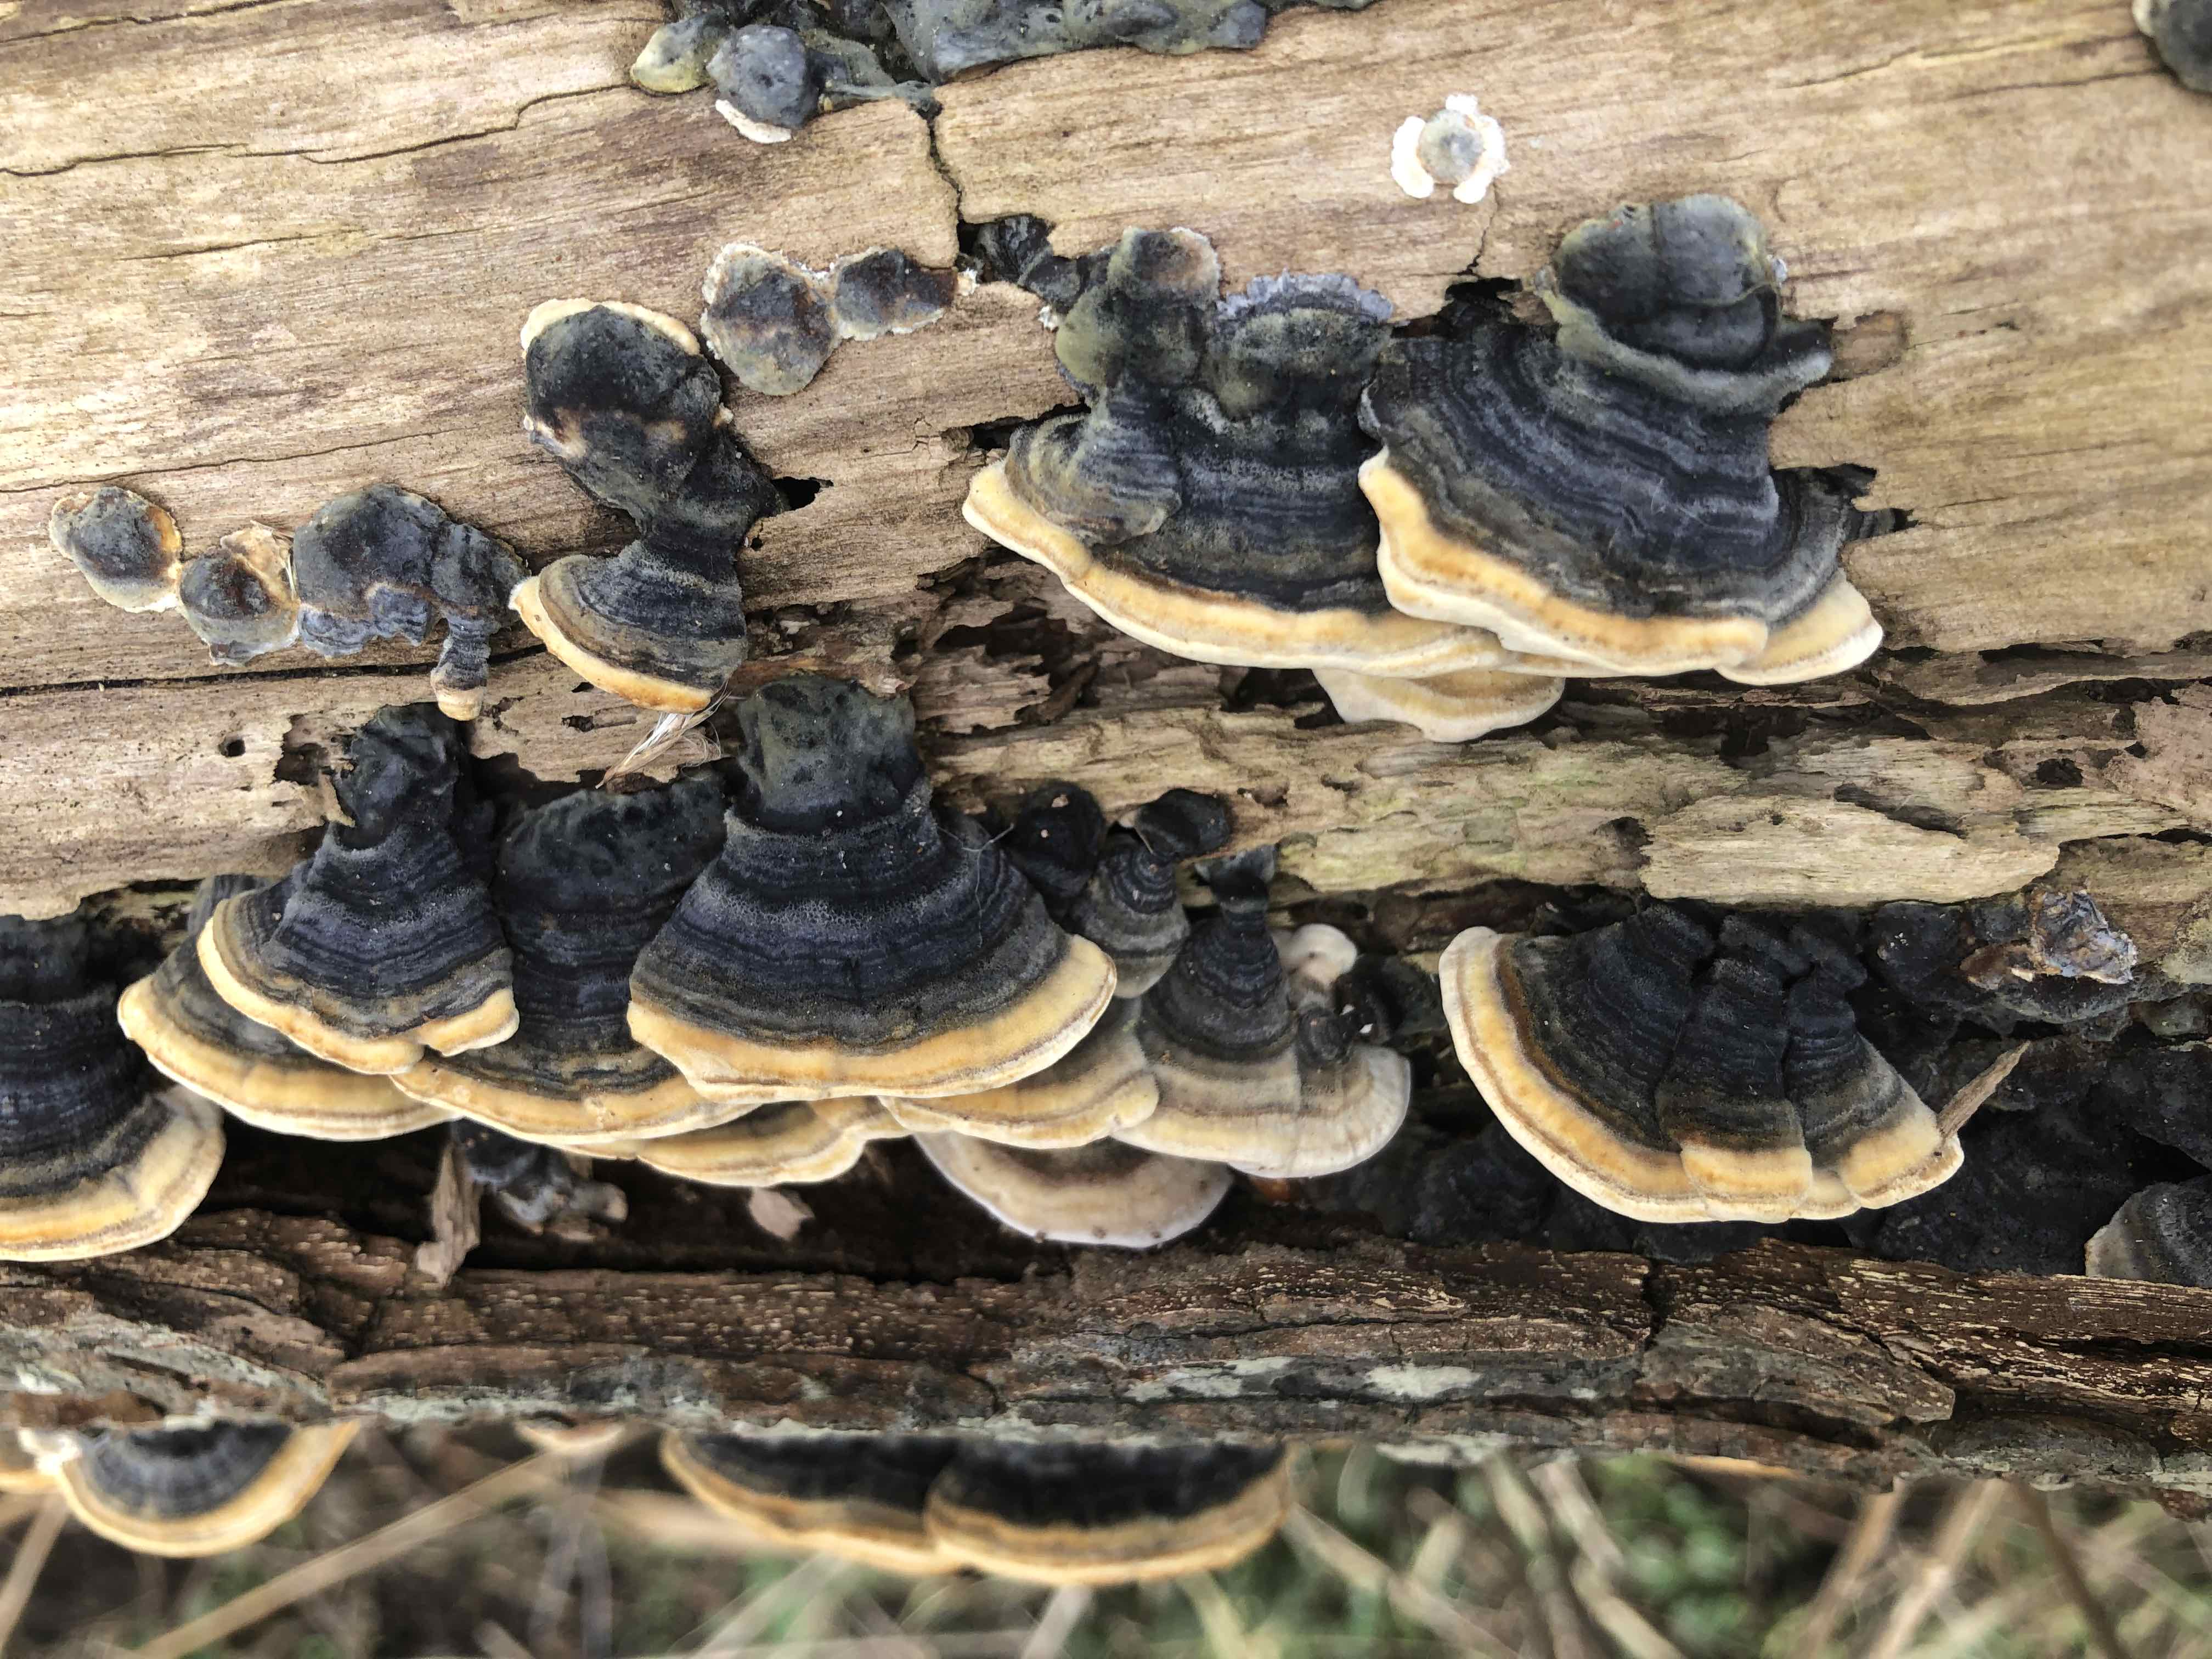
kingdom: Fungi
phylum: Basidiomycota
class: Agaricomycetes
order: Polyporales
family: Polyporaceae
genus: Trametes
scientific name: Trametes versicolor
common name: broget læderporesvamp
